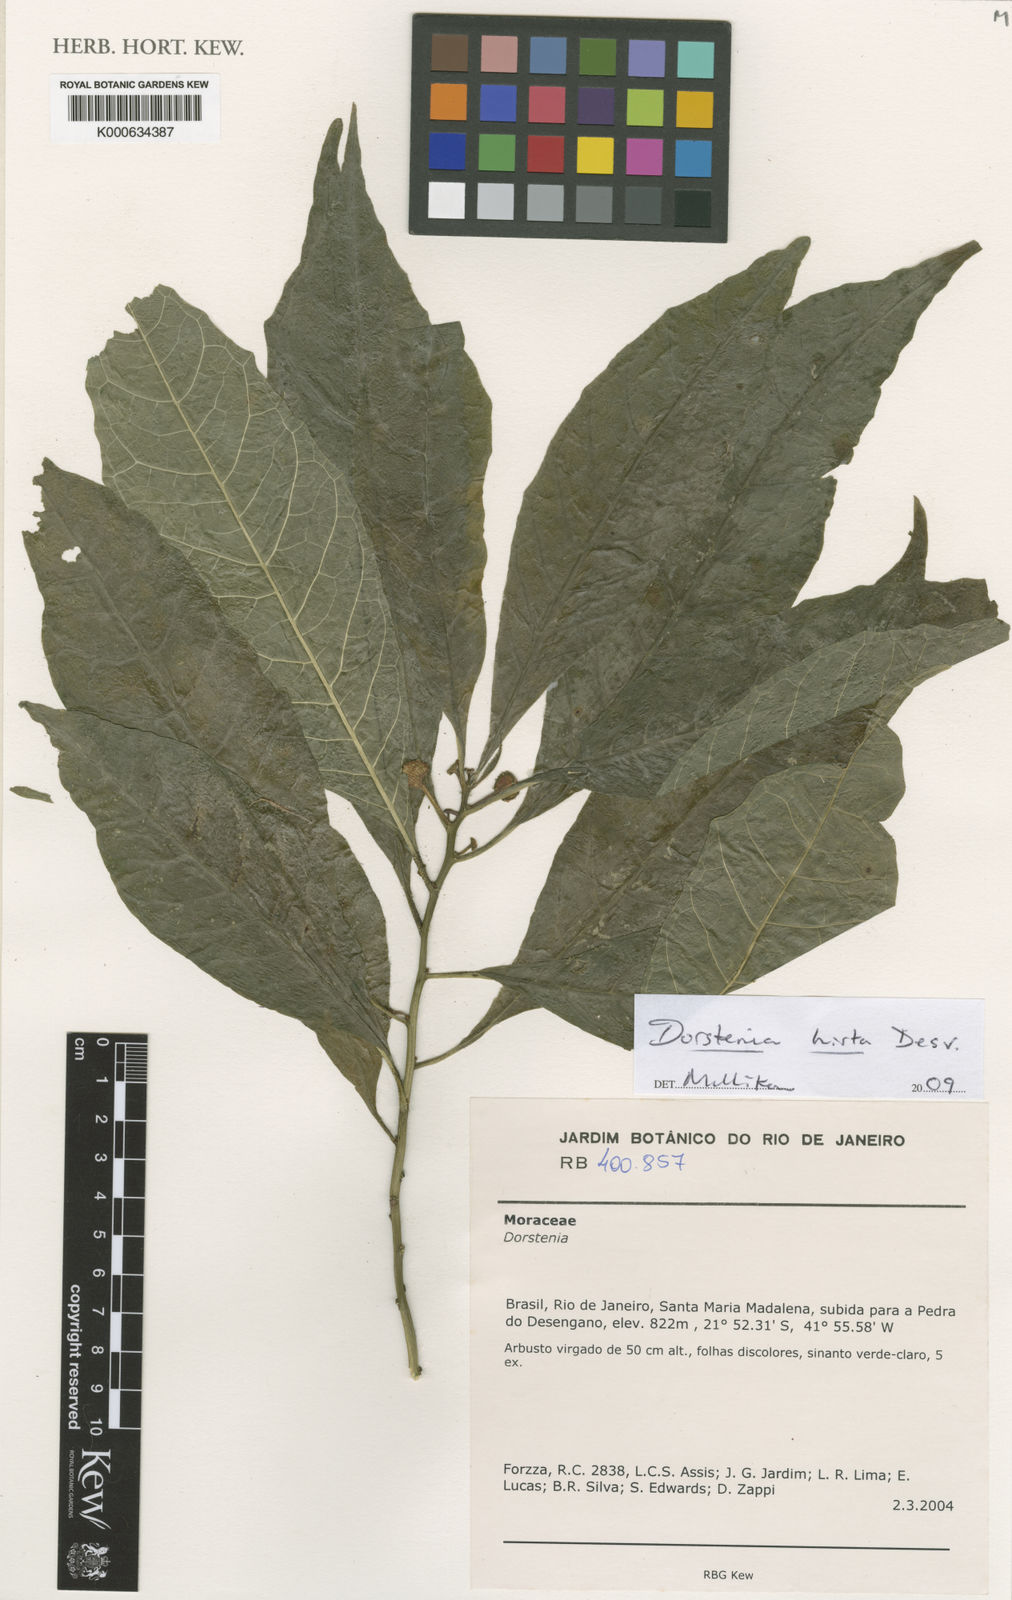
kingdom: Plantae
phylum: Tracheophyta
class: Magnoliopsida
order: Rosales
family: Moraceae
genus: Dorstenia
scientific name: Dorstenia hirta
